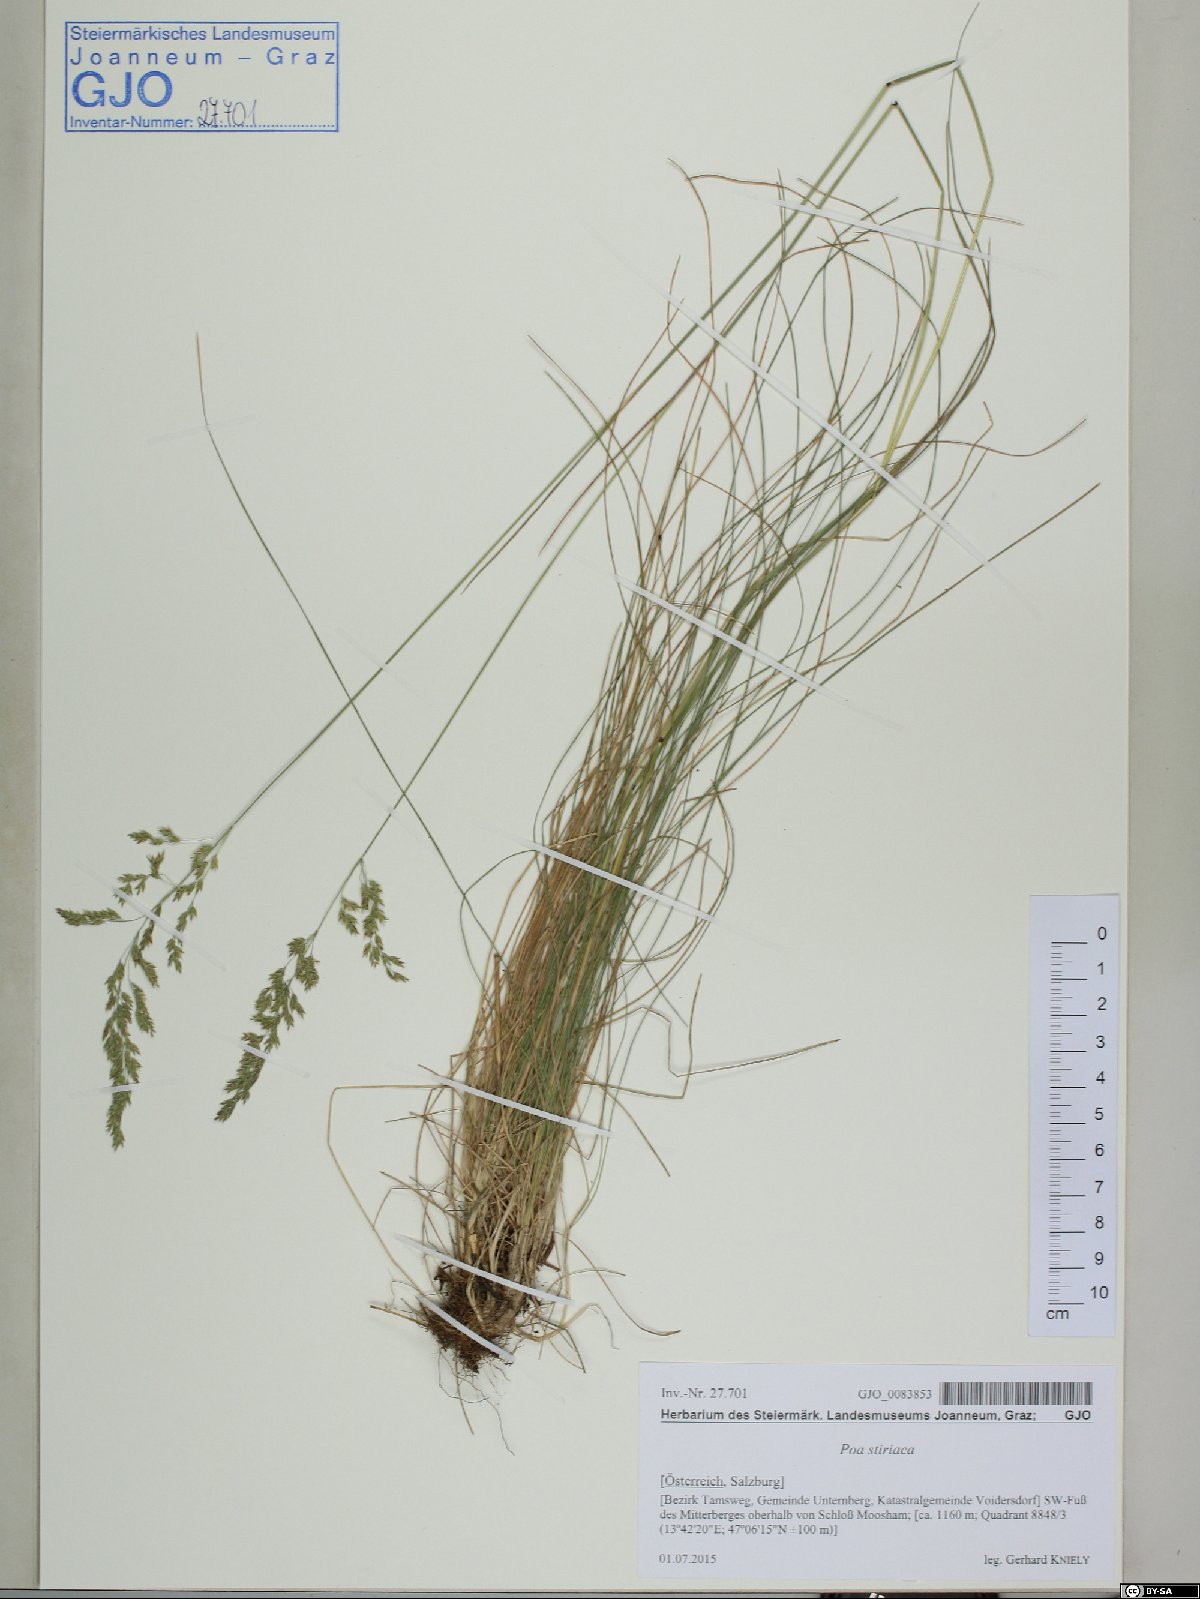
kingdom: Plantae
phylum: Tracheophyta
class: Liliopsida
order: Poales
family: Poaceae
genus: Poa
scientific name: Poa stiriaca
